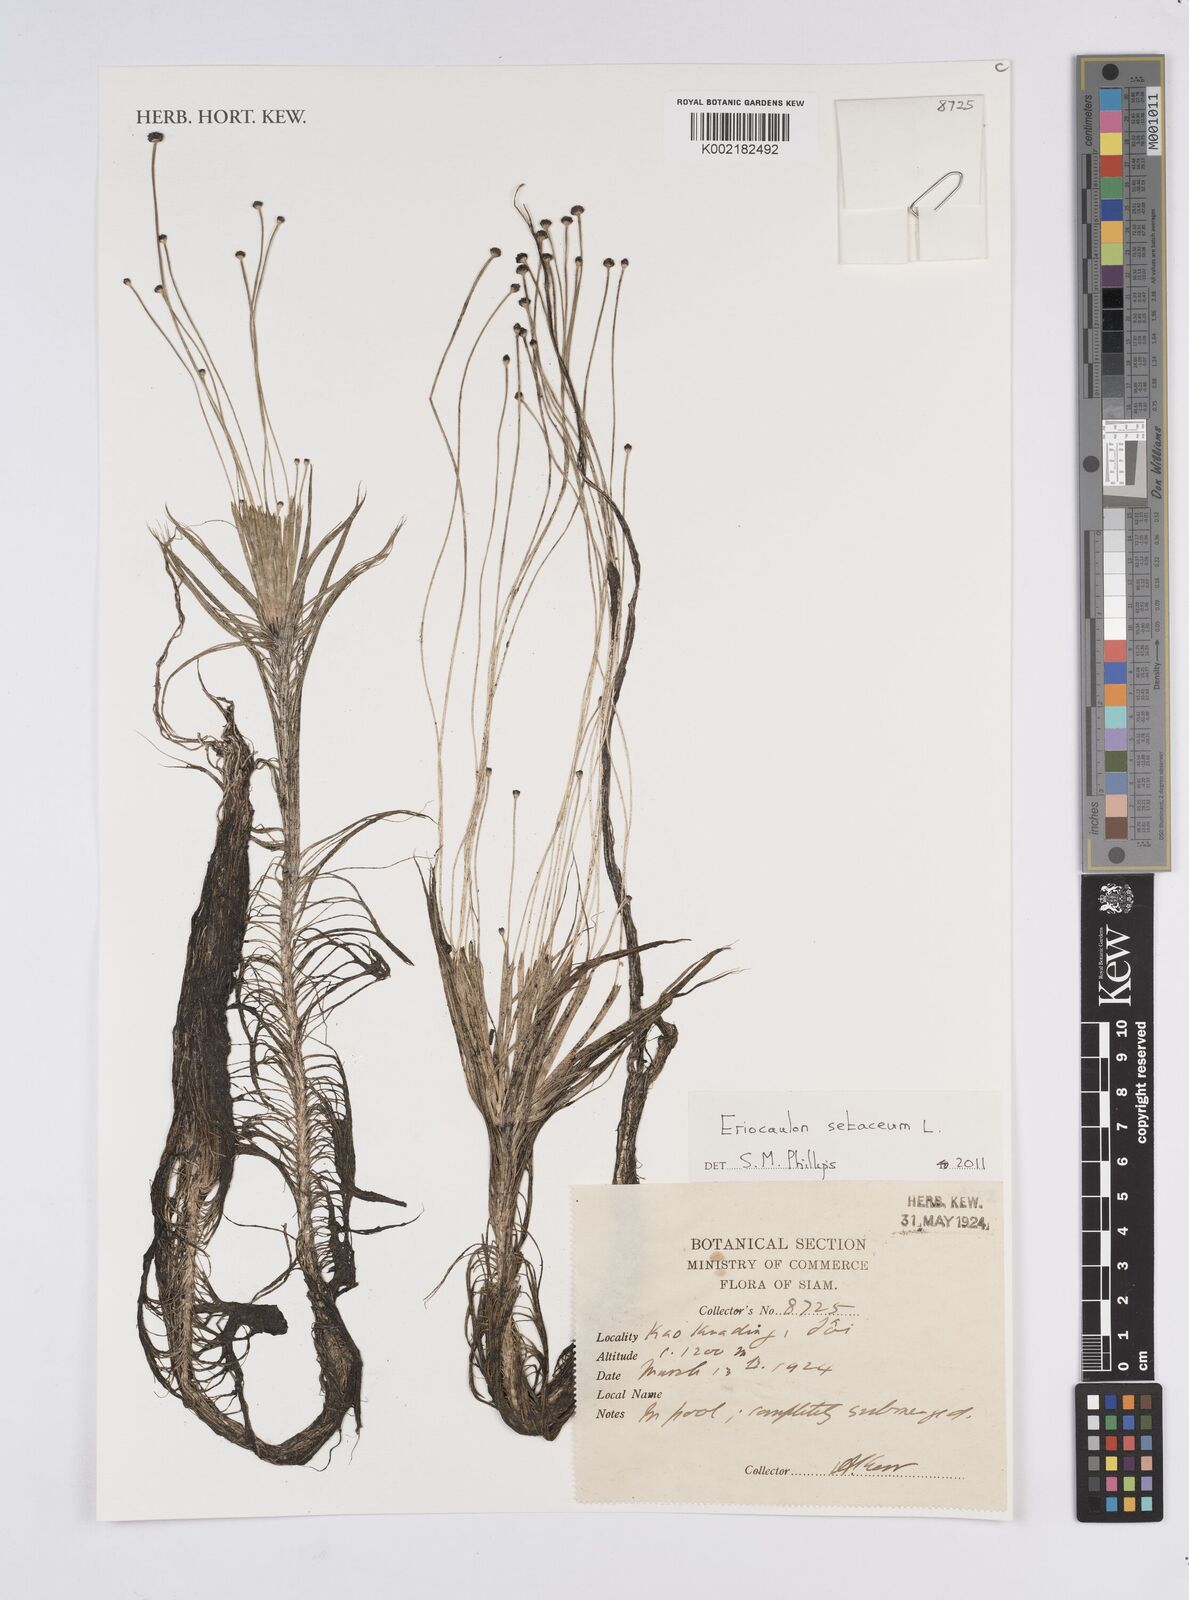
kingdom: Plantae
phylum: Tracheophyta
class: Liliopsida
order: Poales
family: Eriocaulaceae
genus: Eriocaulon
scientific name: Eriocaulon setaceum
